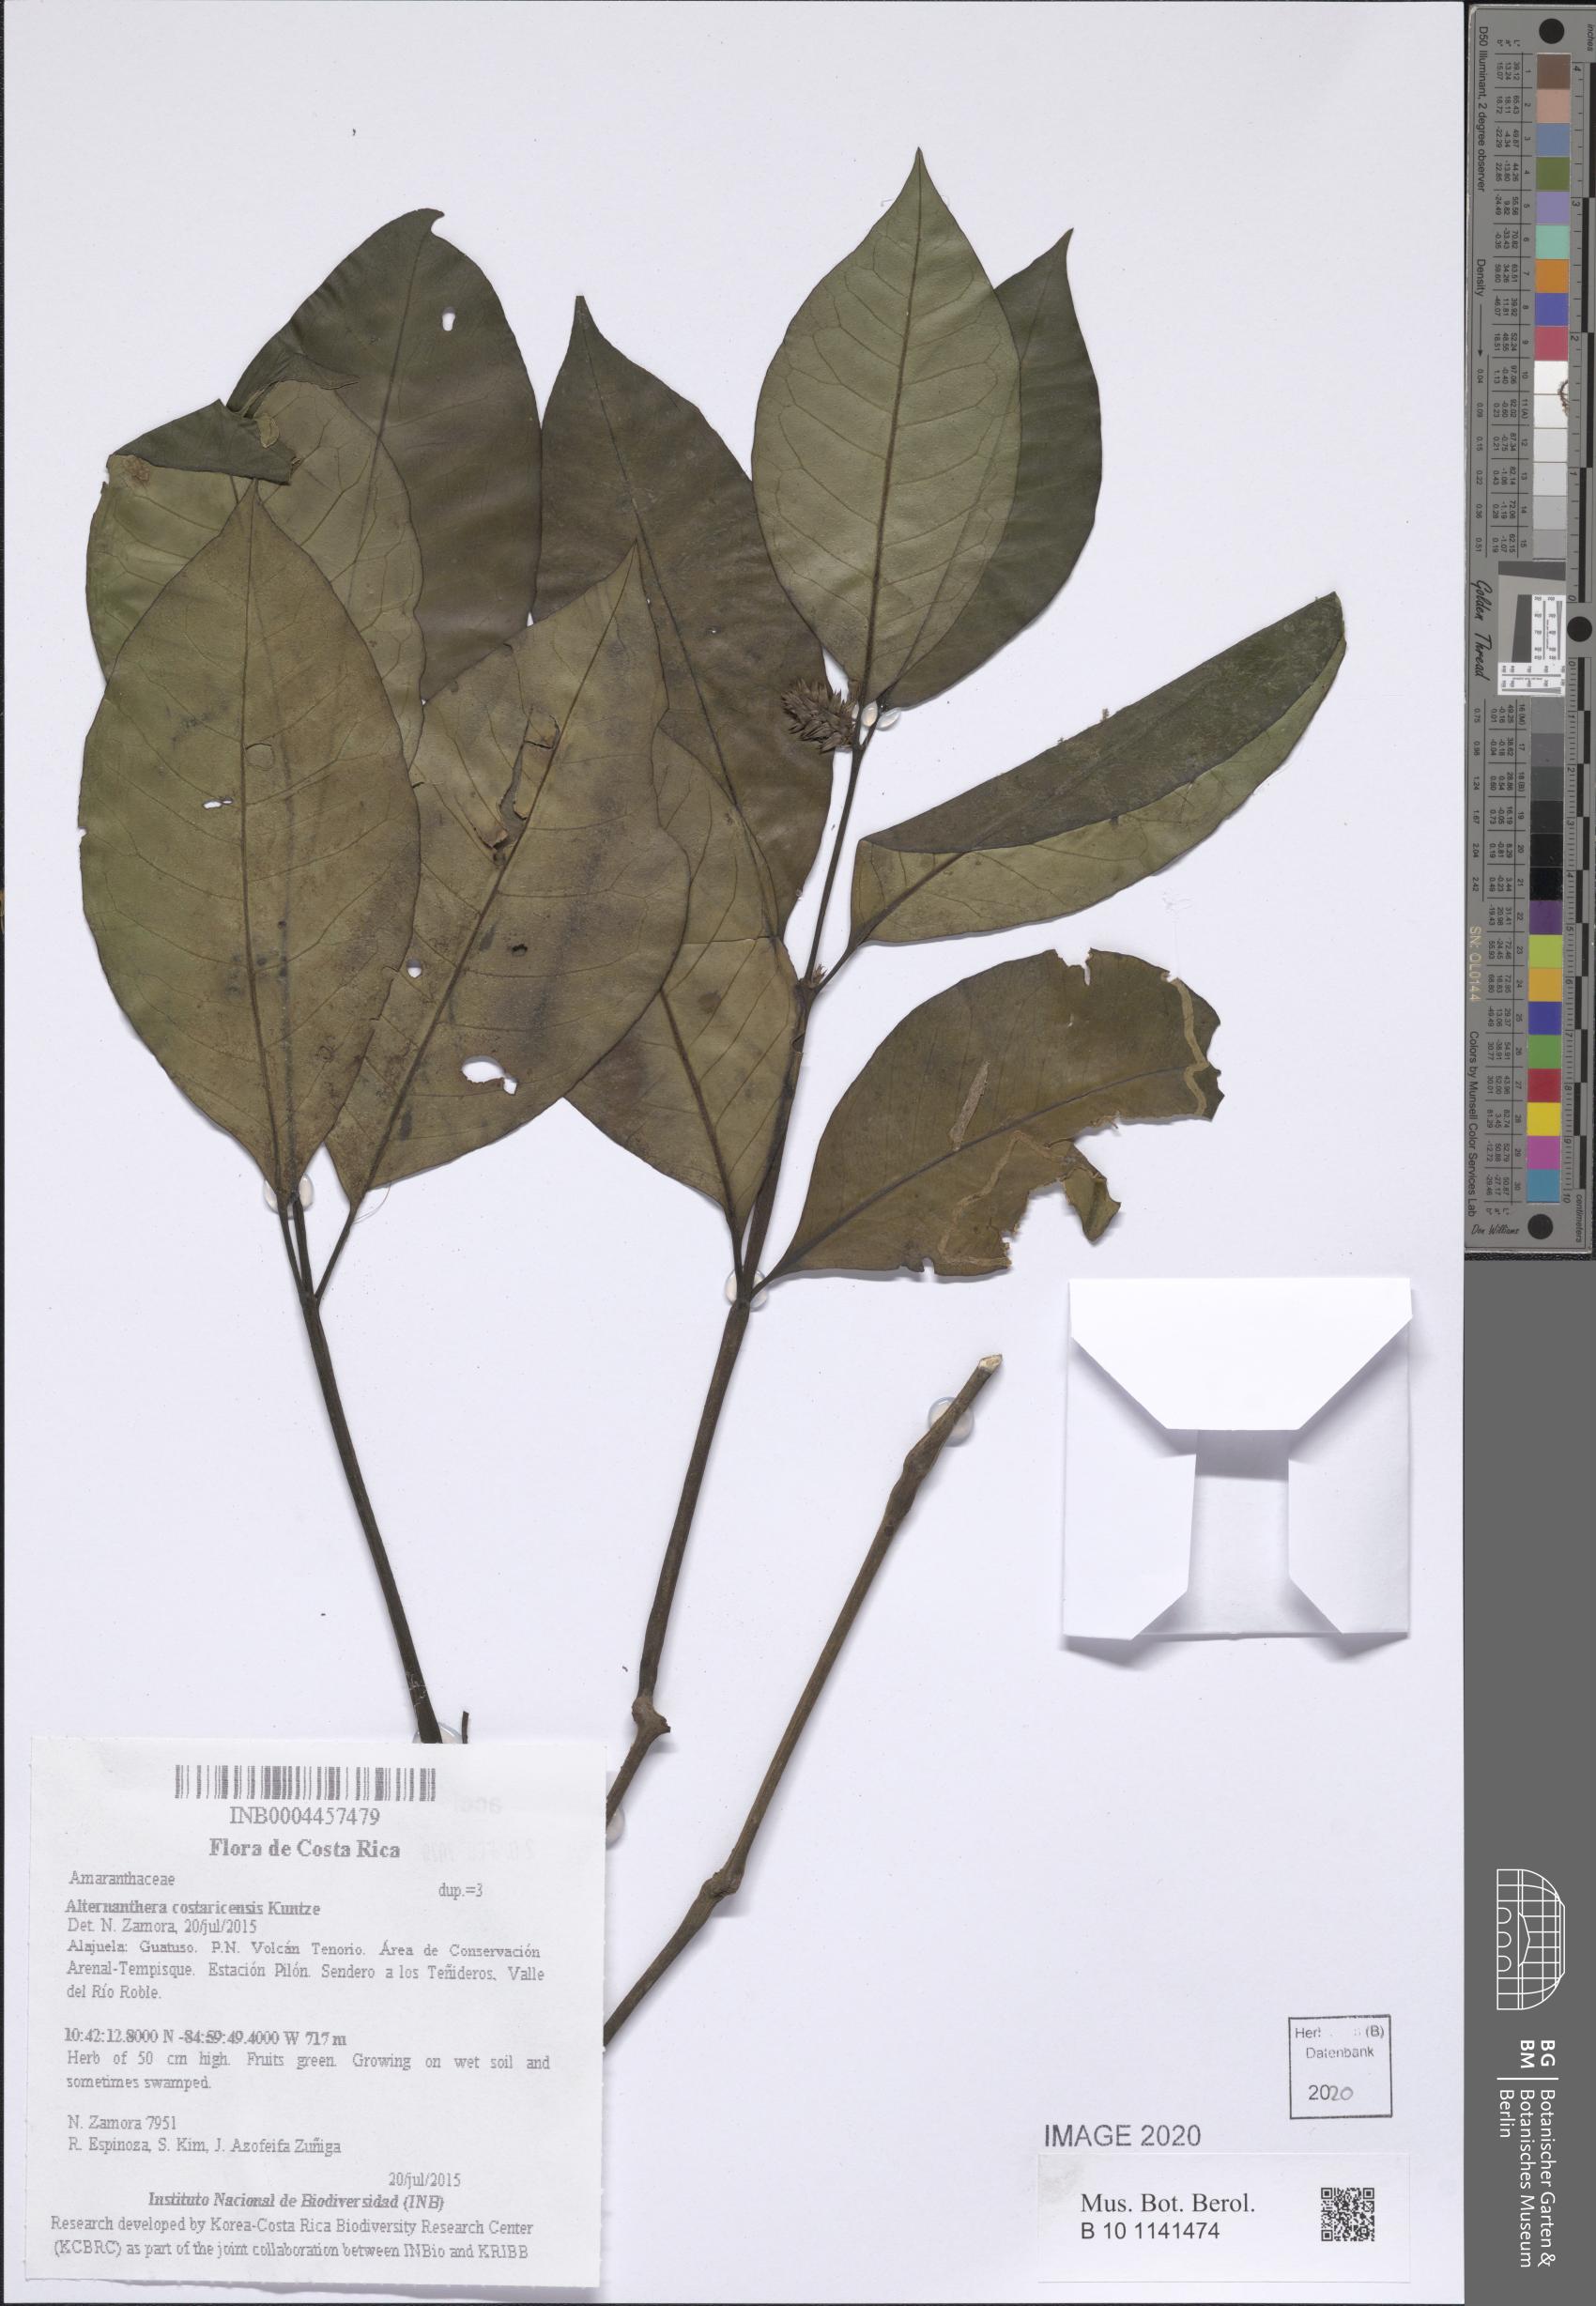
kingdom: Plantae
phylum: Tracheophyta
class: Magnoliopsida
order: Caryophyllales
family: Amaranthaceae
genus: Alternanthera
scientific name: Alternanthera costaricensis
